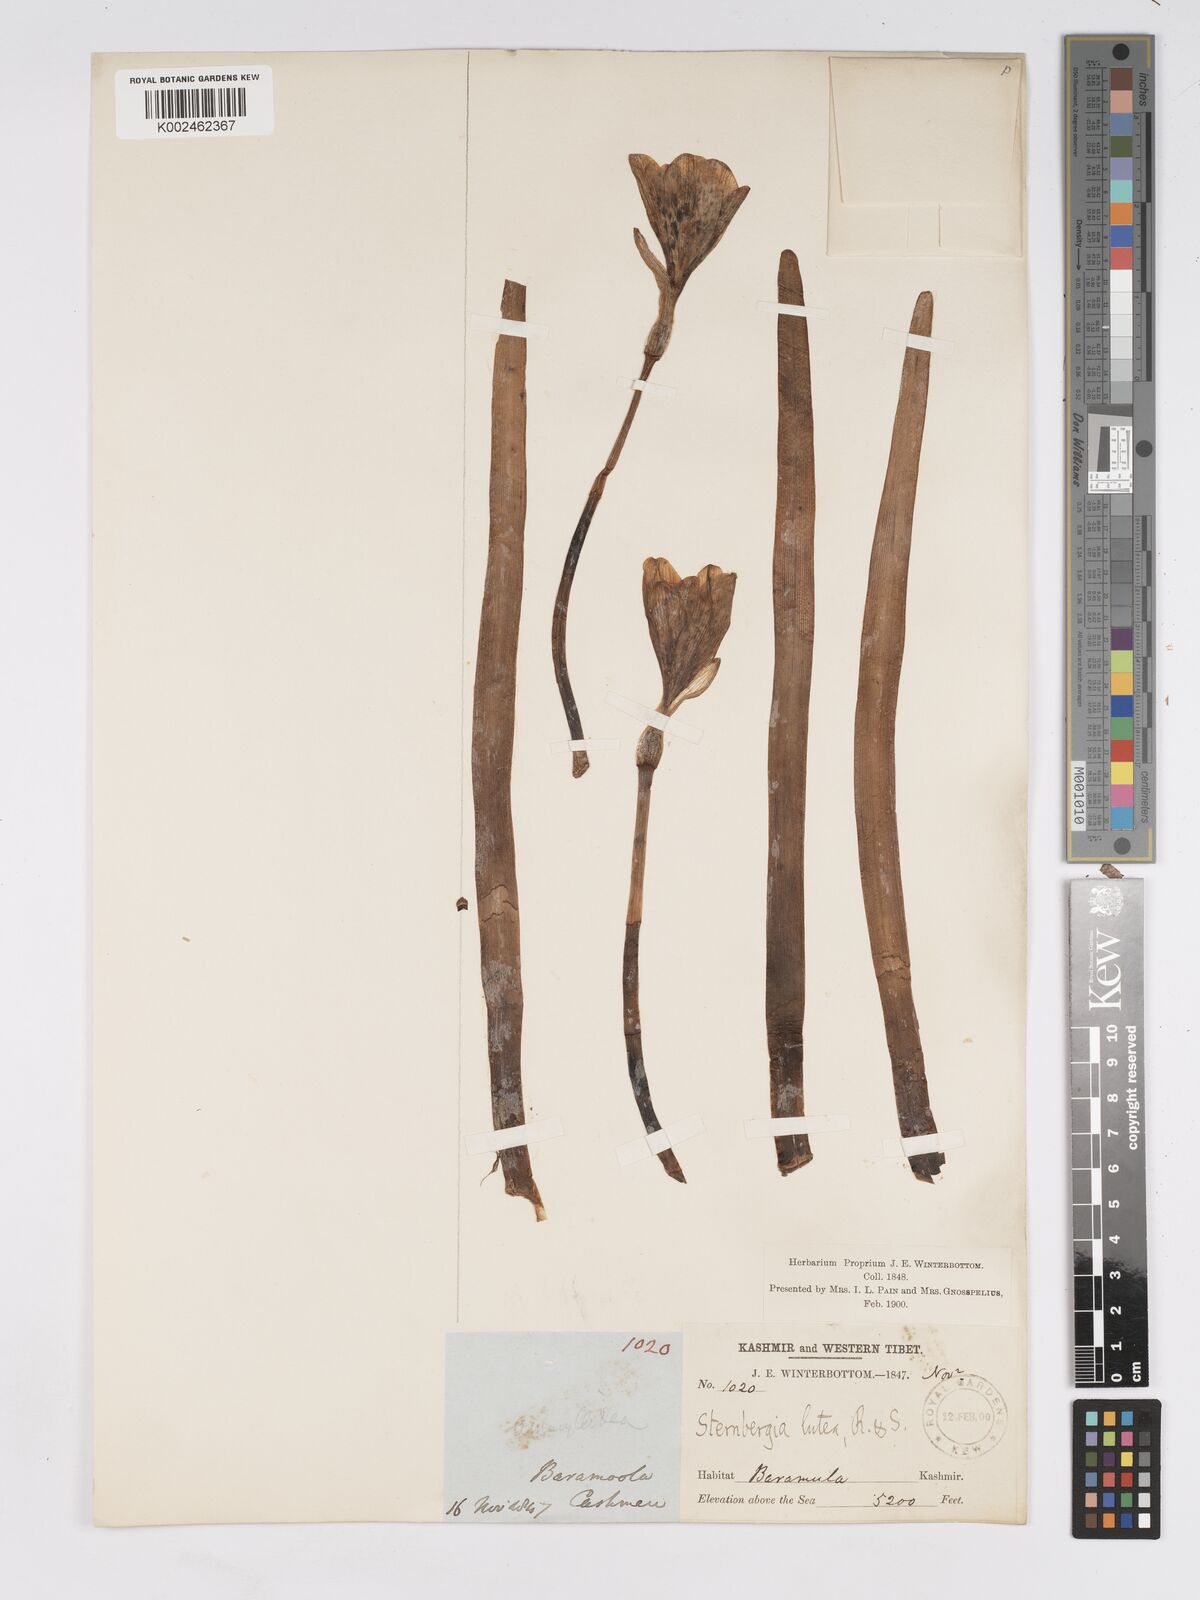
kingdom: Plantae
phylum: Tracheophyta
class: Liliopsida
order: Asparagales
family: Amaryllidaceae
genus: Sternbergia
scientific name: Sternbergia vernalis
